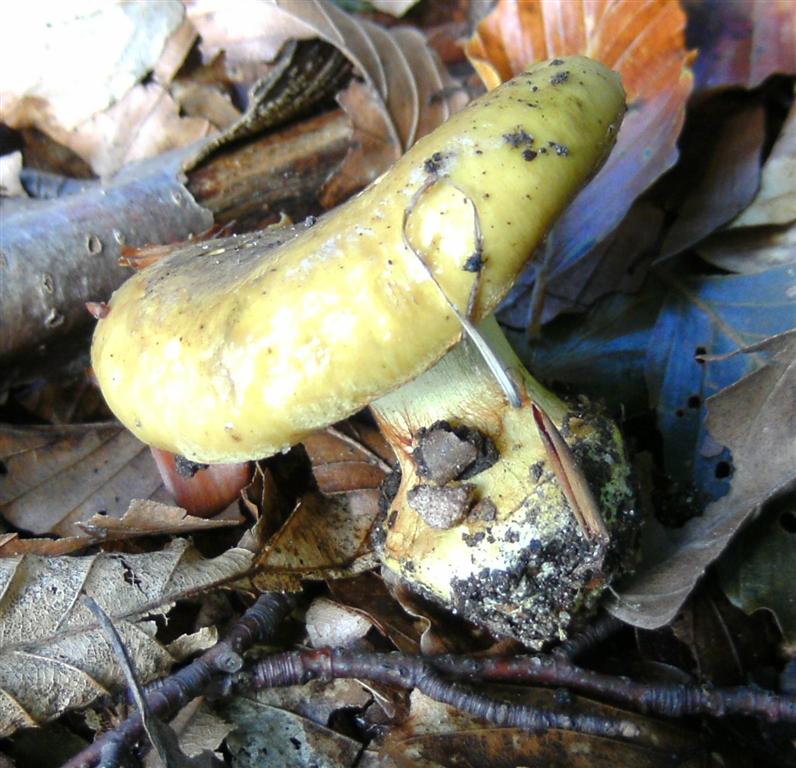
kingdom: Fungi
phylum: Basidiomycota
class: Agaricomycetes
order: Agaricales
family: Cortinariaceae
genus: Calonarius
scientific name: Calonarius citrinus
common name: citrongul slørhat
